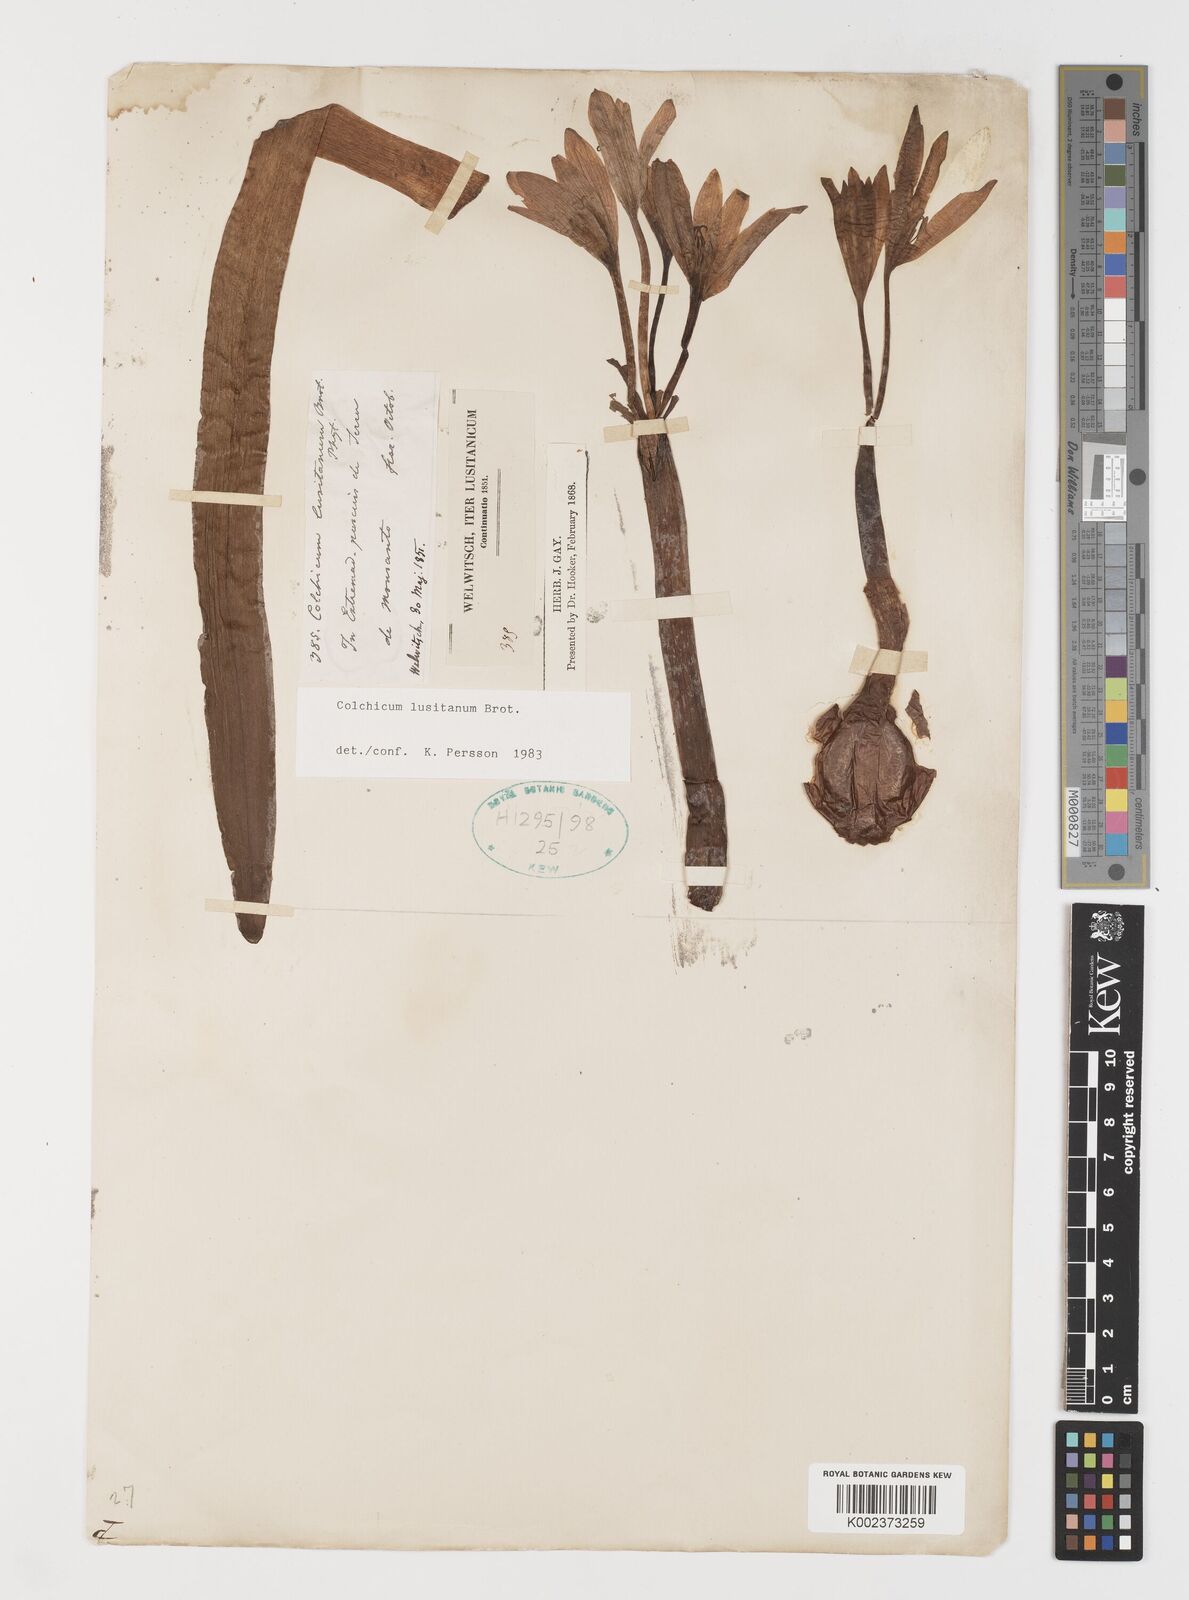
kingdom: Plantae
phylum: Tracheophyta
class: Liliopsida
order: Liliales
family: Colchicaceae
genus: Colchicum
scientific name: Colchicum lusitanum
